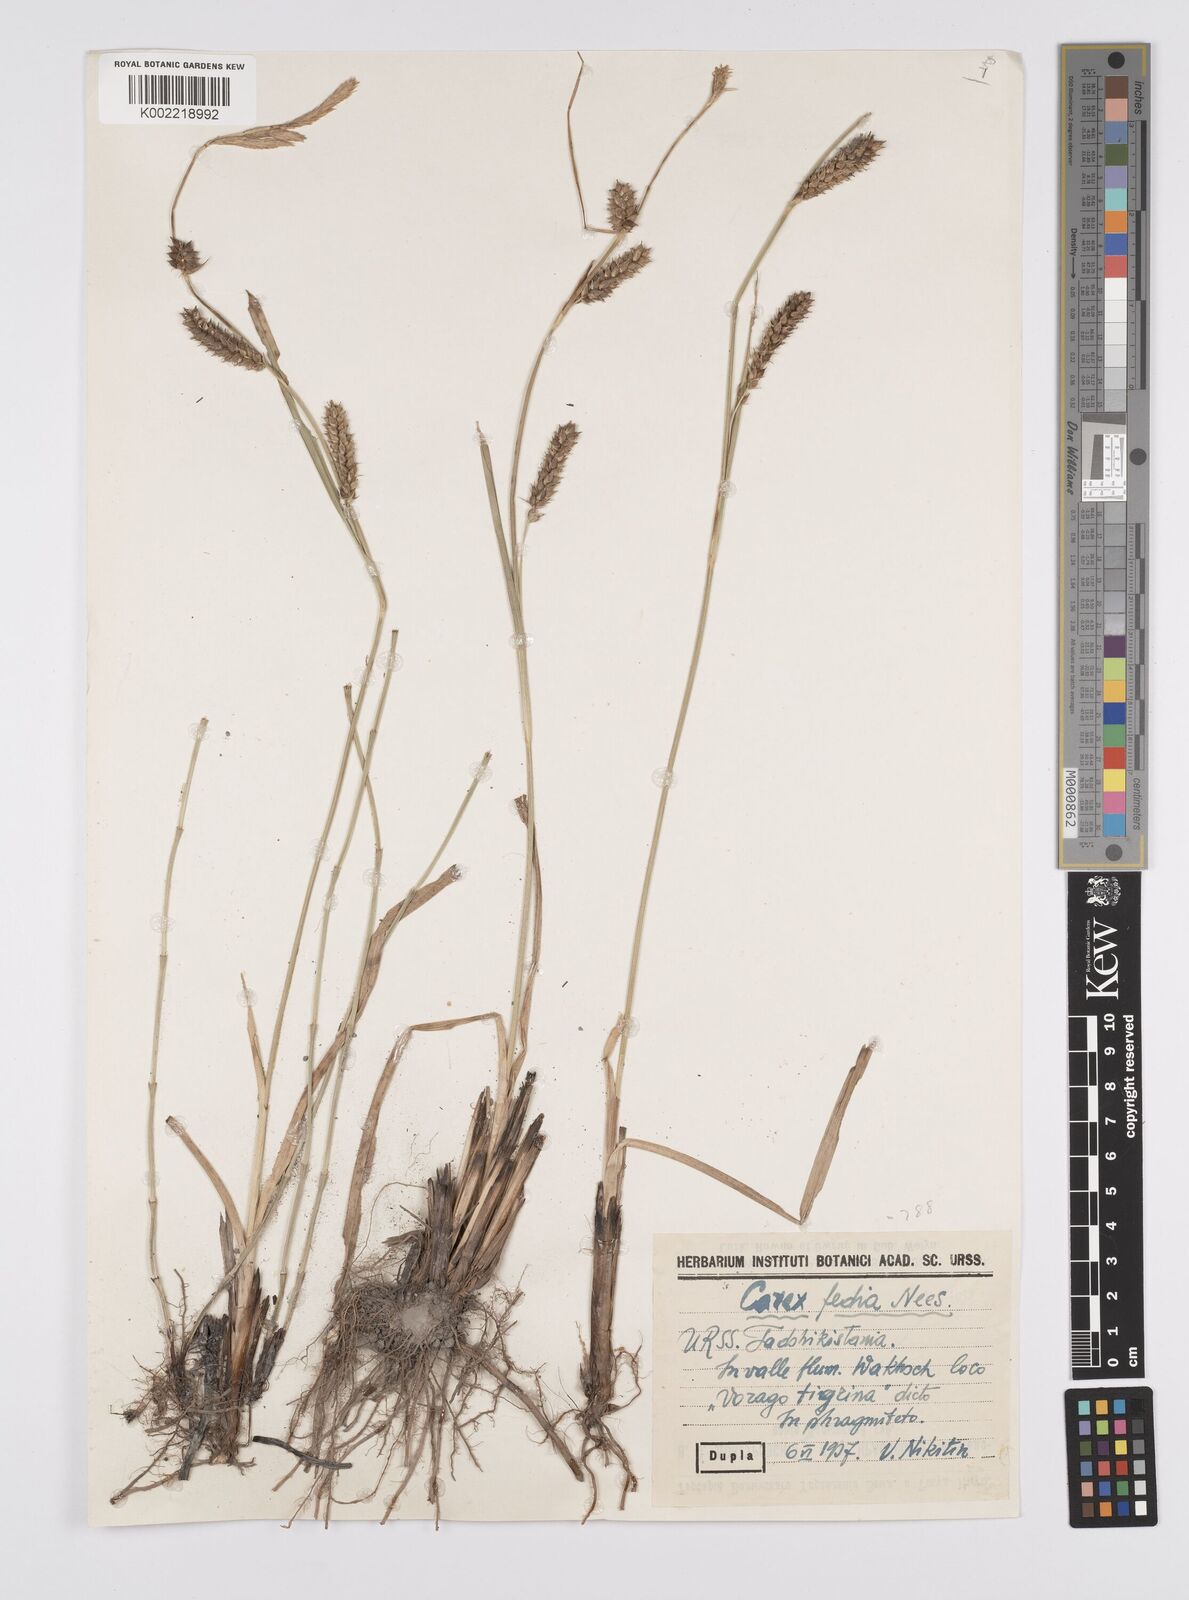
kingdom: Plantae
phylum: Tracheophyta
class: Liliopsida
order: Poales
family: Cyperaceae
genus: Carex
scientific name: Carex fedia
